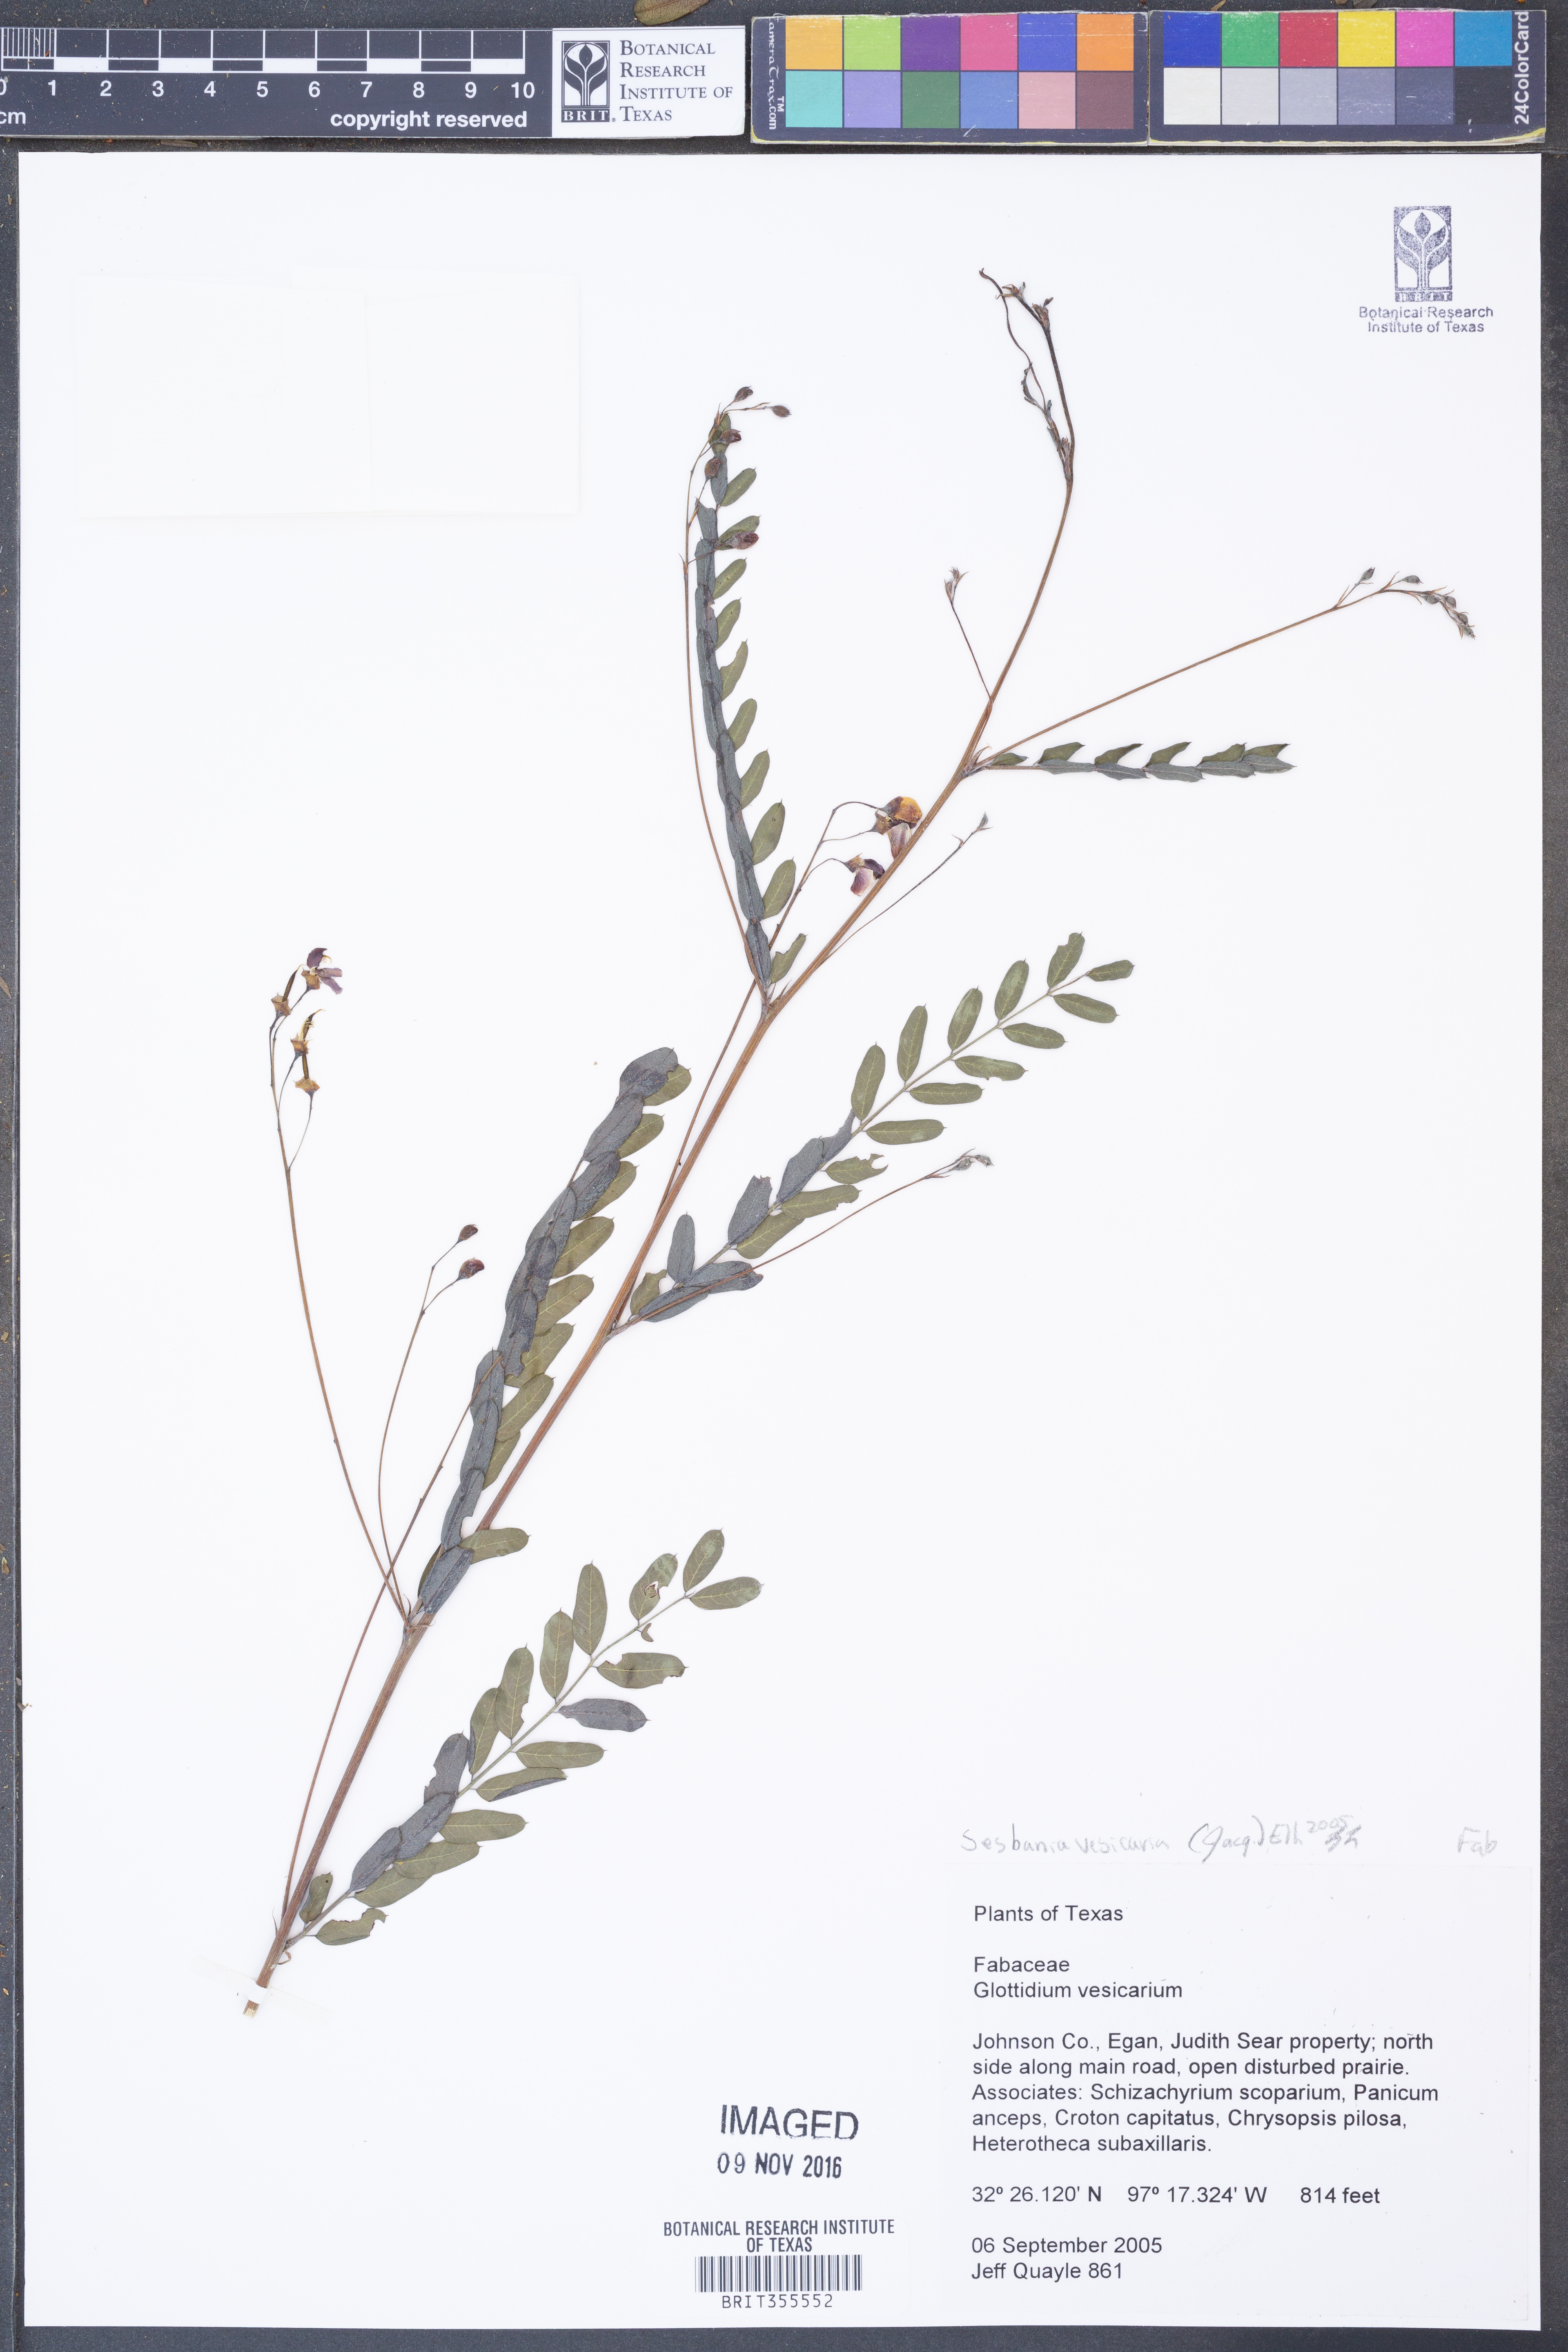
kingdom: Plantae
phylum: Tracheophyta
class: Magnoliopsida
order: Fabales
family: Fabaceae
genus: Sesbania
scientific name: Sesbania vesicaria
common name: Bagpod
